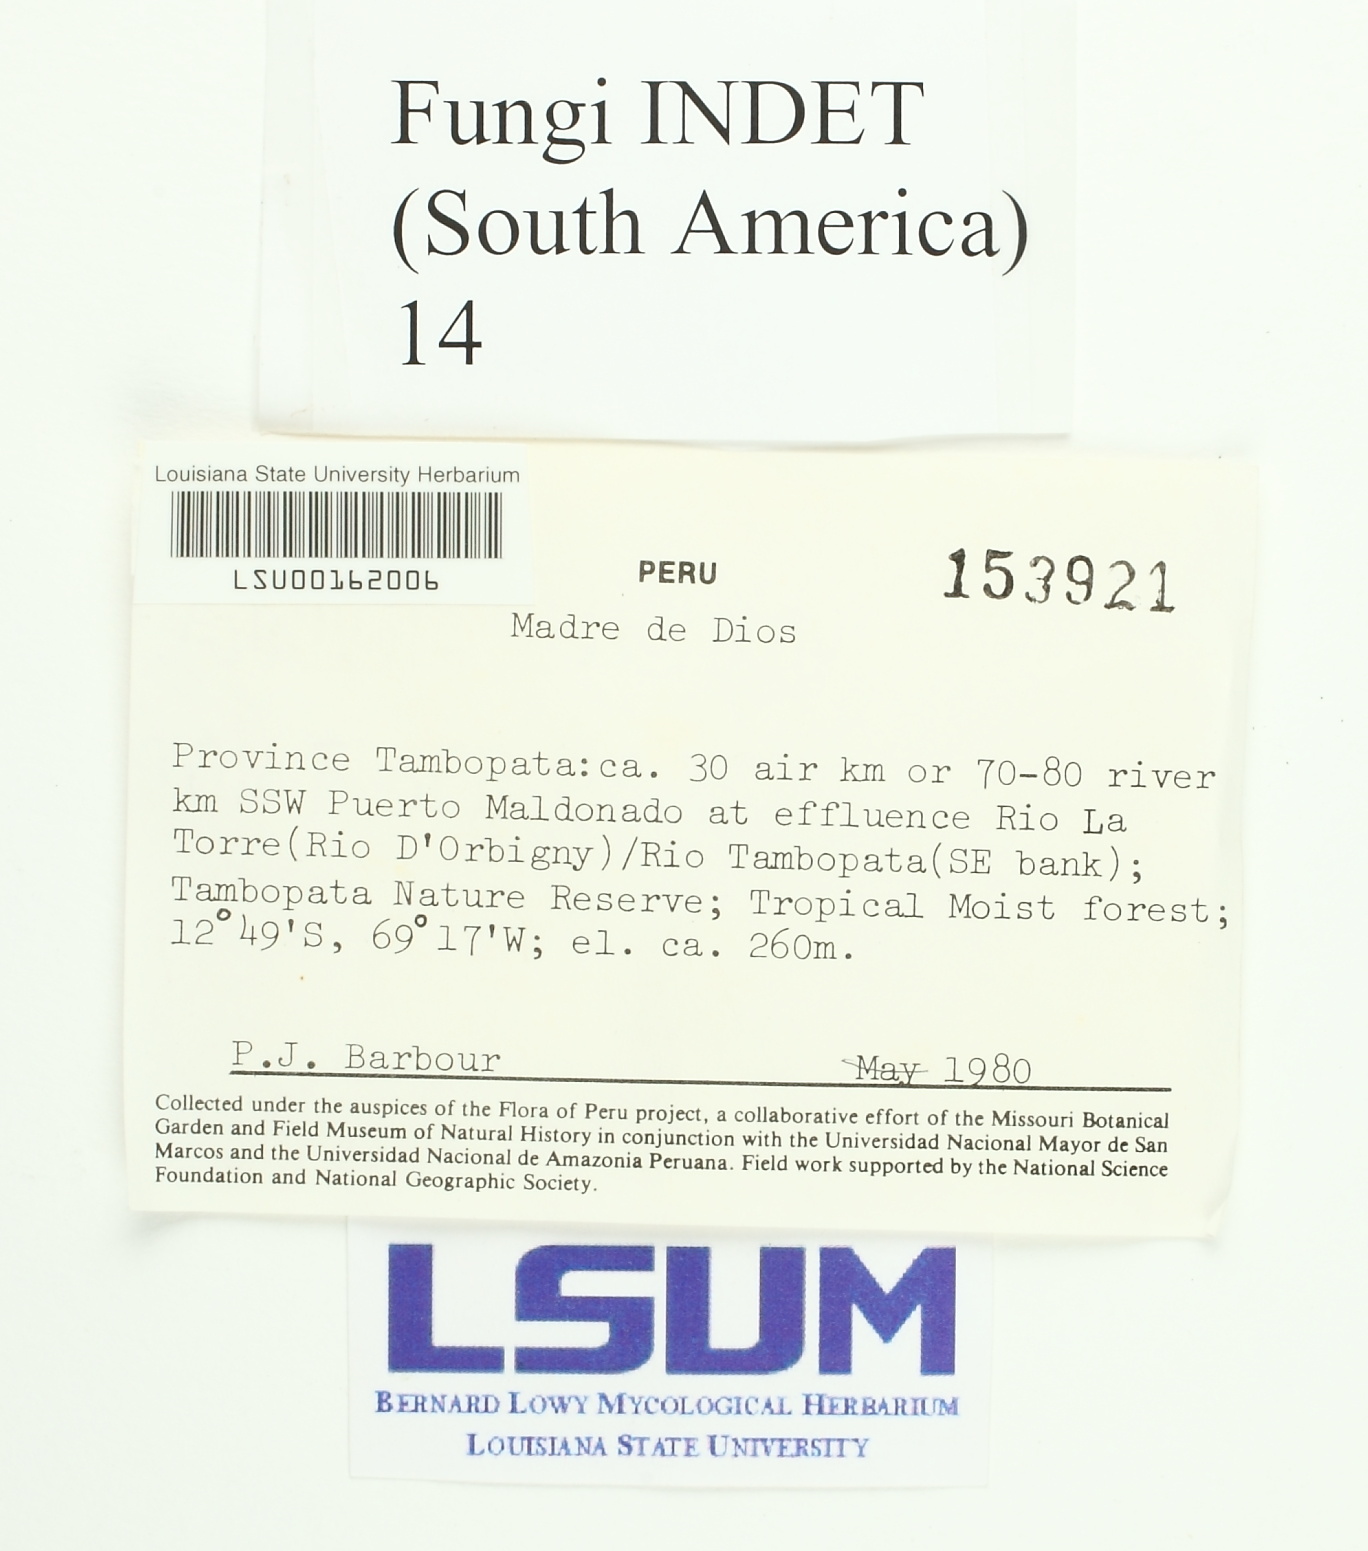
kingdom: Fungi
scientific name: Fungi
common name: Fungi
